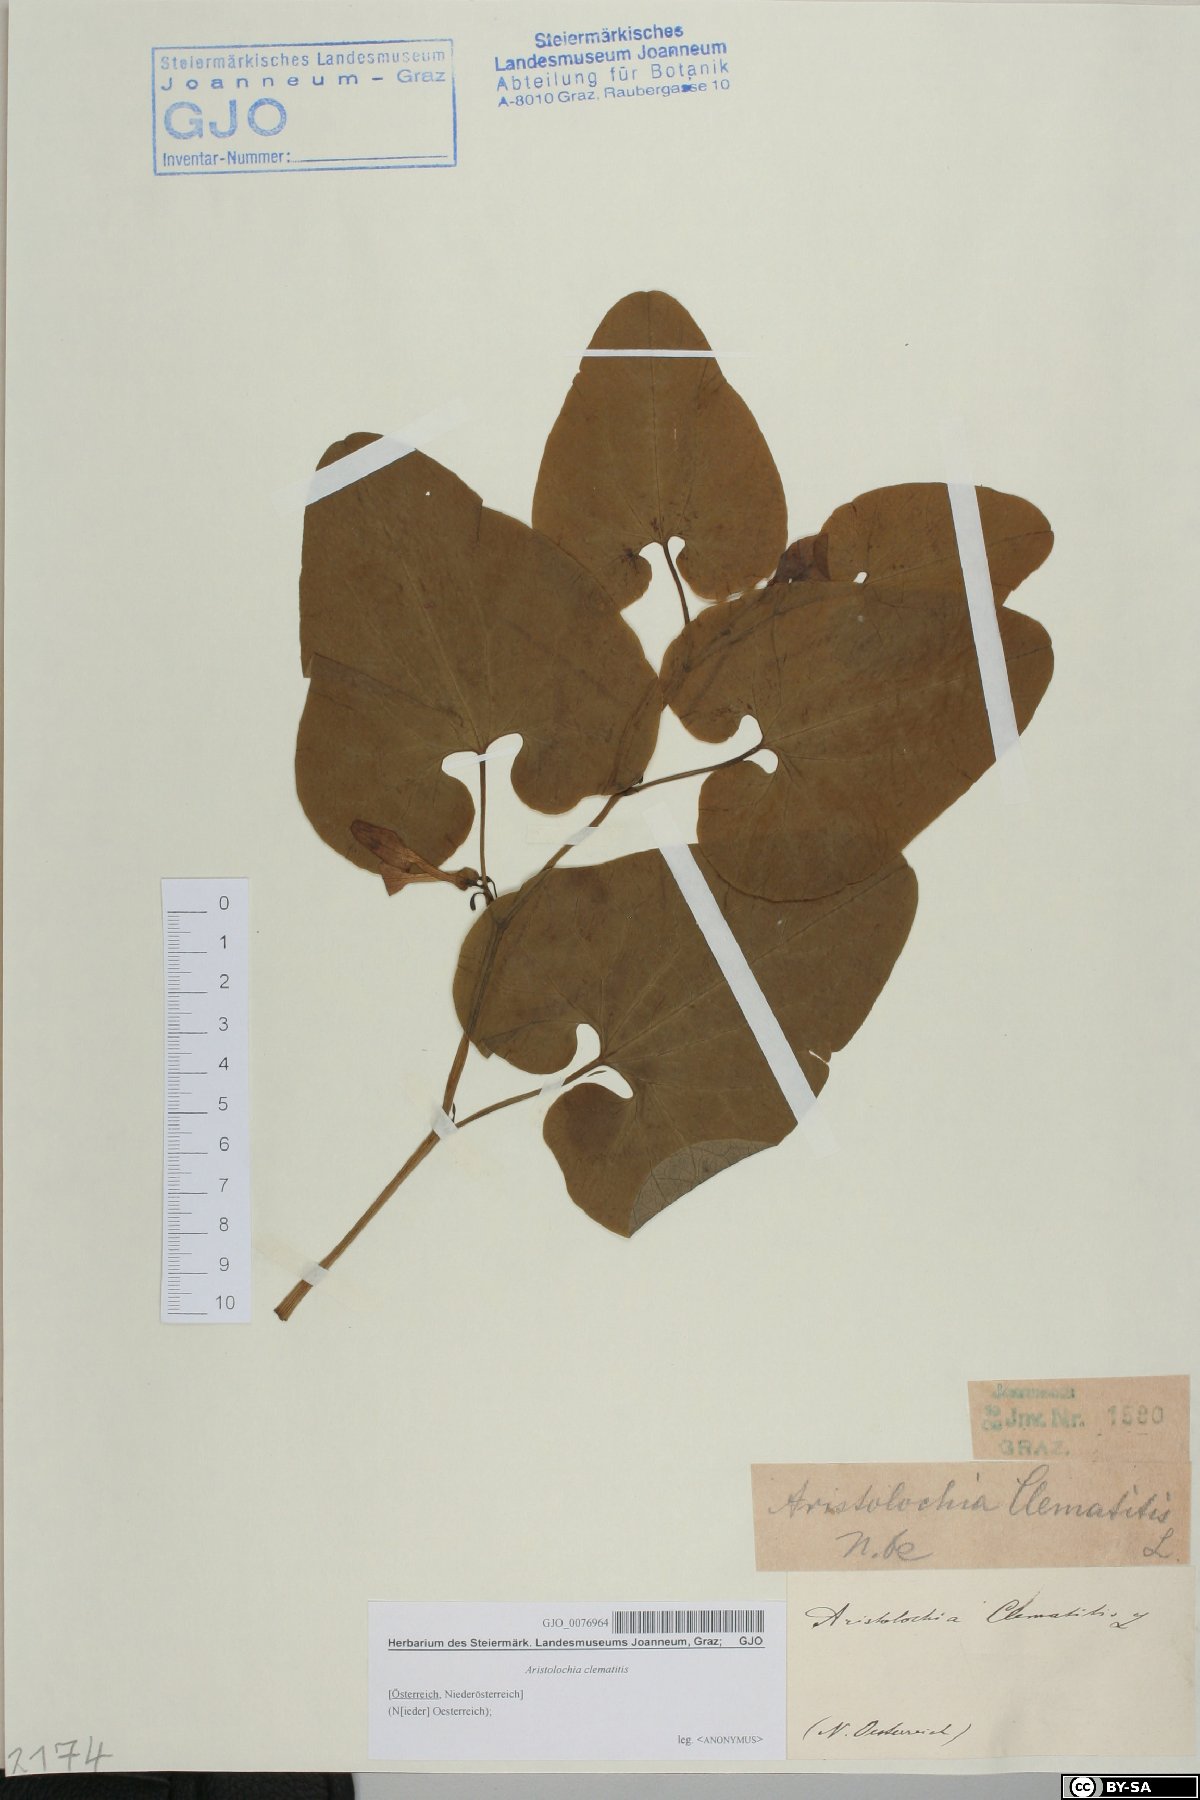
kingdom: Plantae
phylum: Tracheophyta
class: Magnoliopsida
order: Piperales
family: Aristolochiaceae
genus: Aristolochia
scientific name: Aristolochia clematitis
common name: Birthwort
